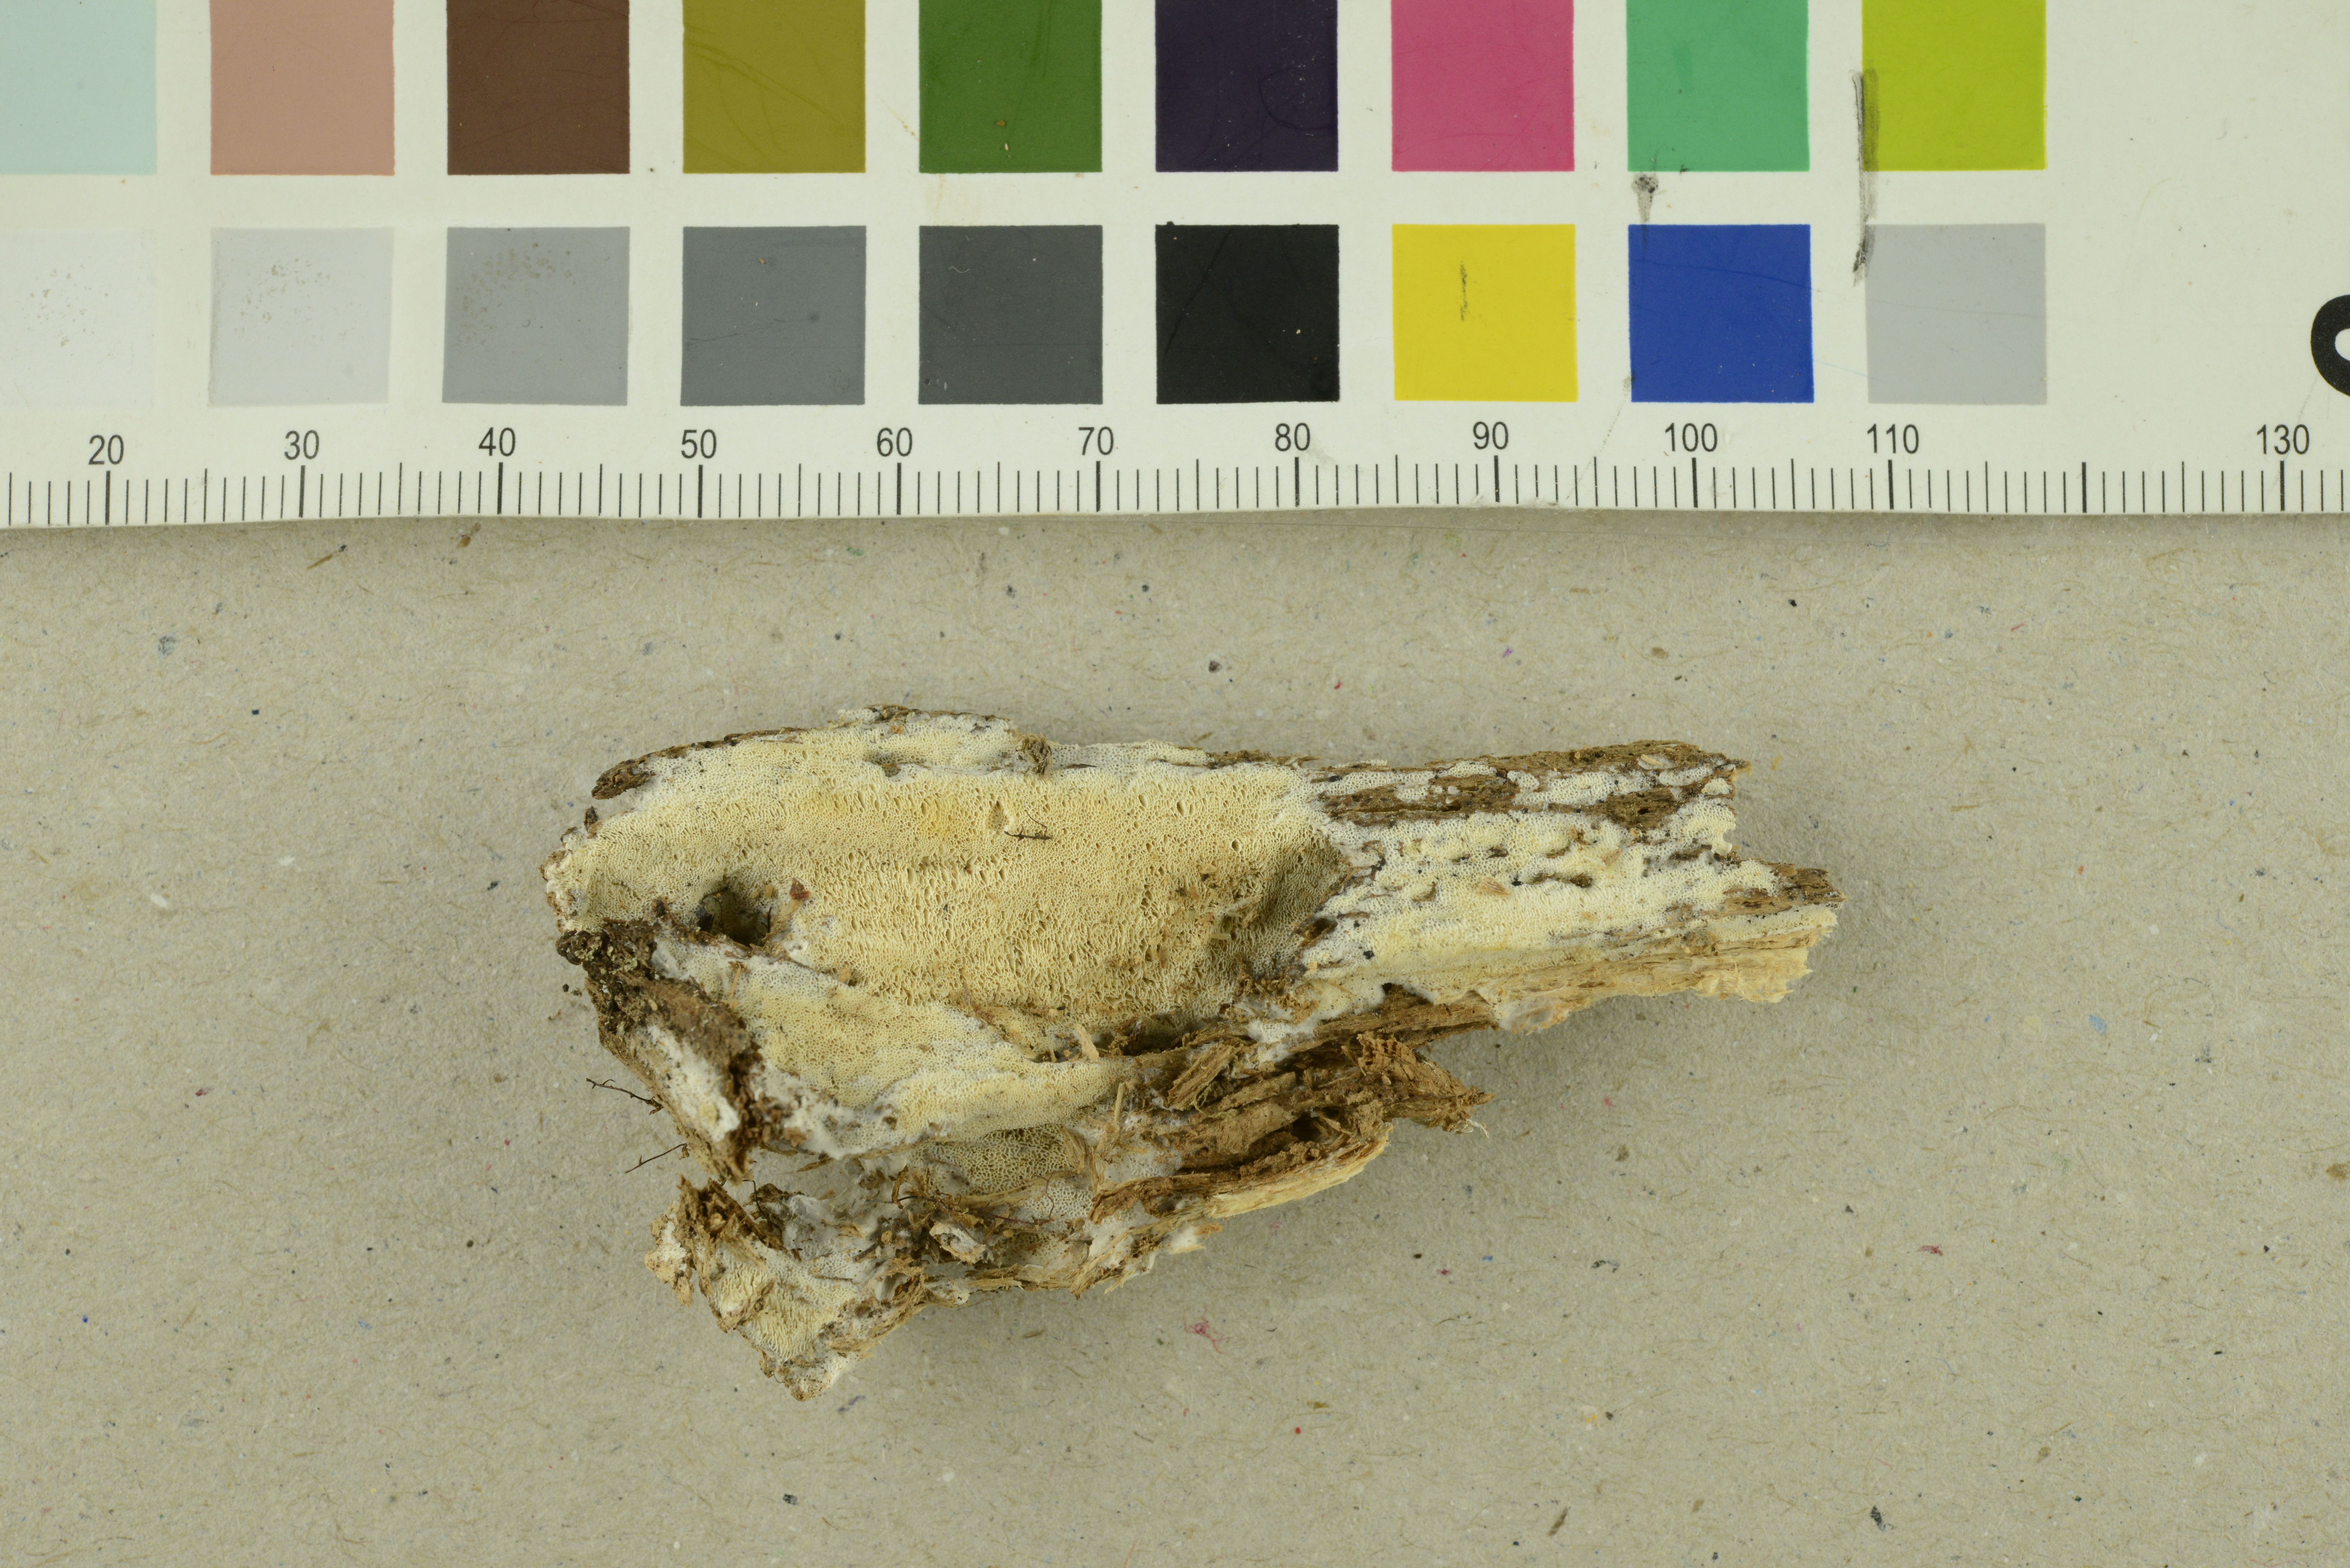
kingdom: Fungi
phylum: Basidiomycota
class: Agaricomycetes
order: Hymenochaetales
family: Rickenellaceae
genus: Sidera
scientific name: Sidera vulgaris
